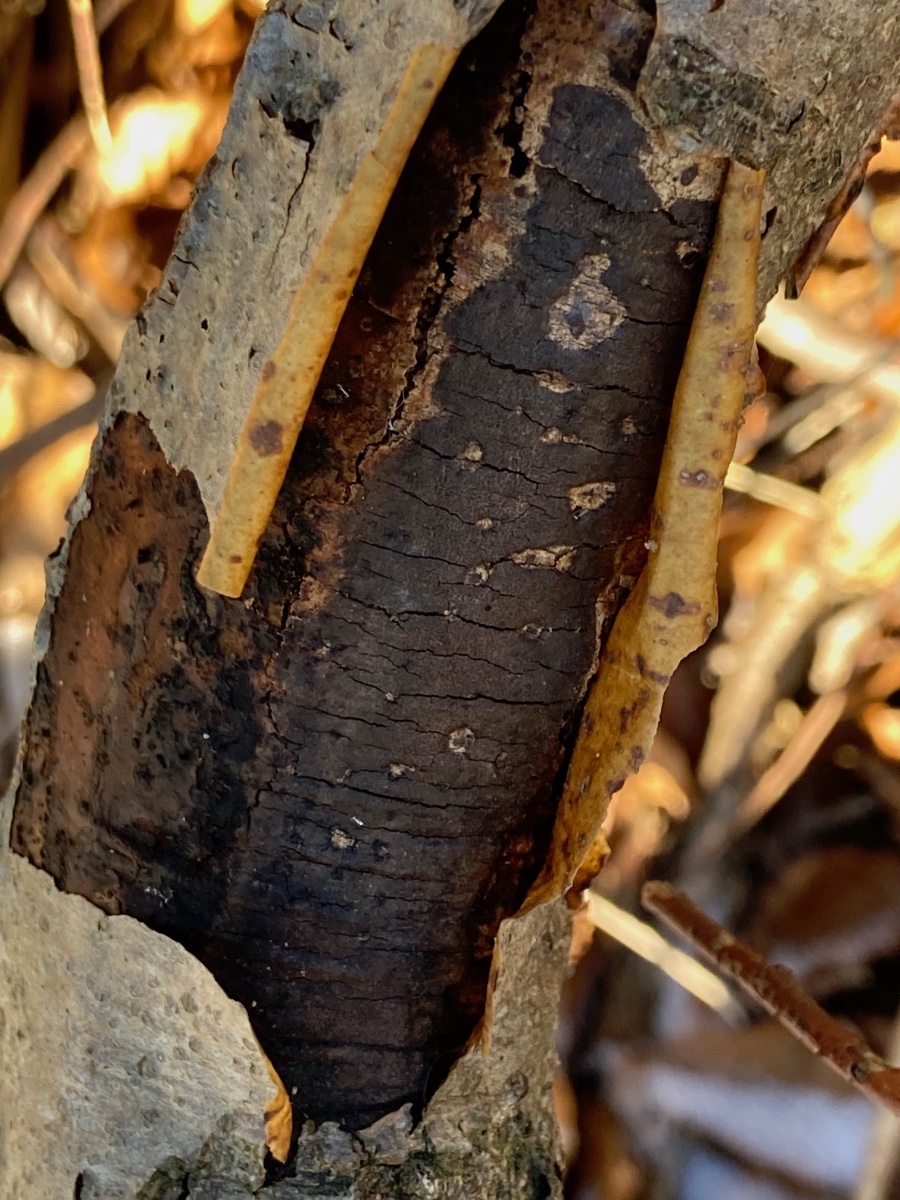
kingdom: Fungi
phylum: Ascomycota
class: Sordariomycetes
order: Xylariales
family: Diatrypaceae
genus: Diatrype
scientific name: Diatrype decorticata
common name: barksprænger-kulskorpe
